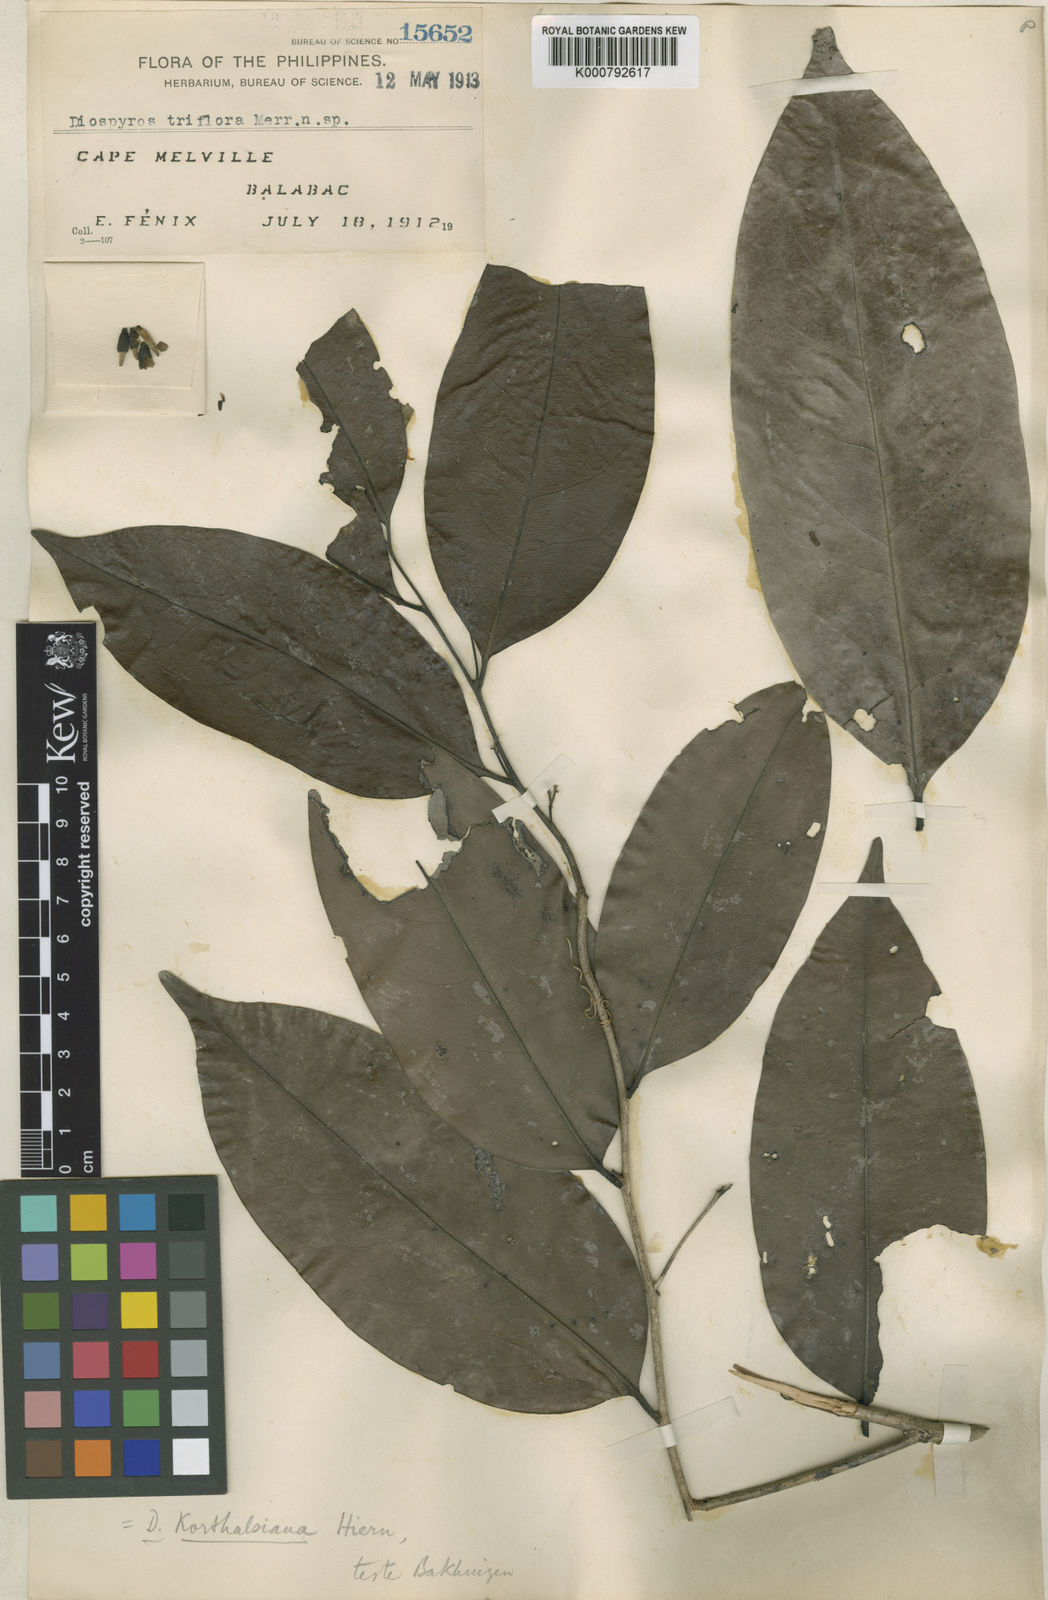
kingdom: Plantae
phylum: Tracheophyta
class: Magnoliopsida
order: Ericales
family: Ebenaceae
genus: Diospyros
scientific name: Diospyros korthalsiana
